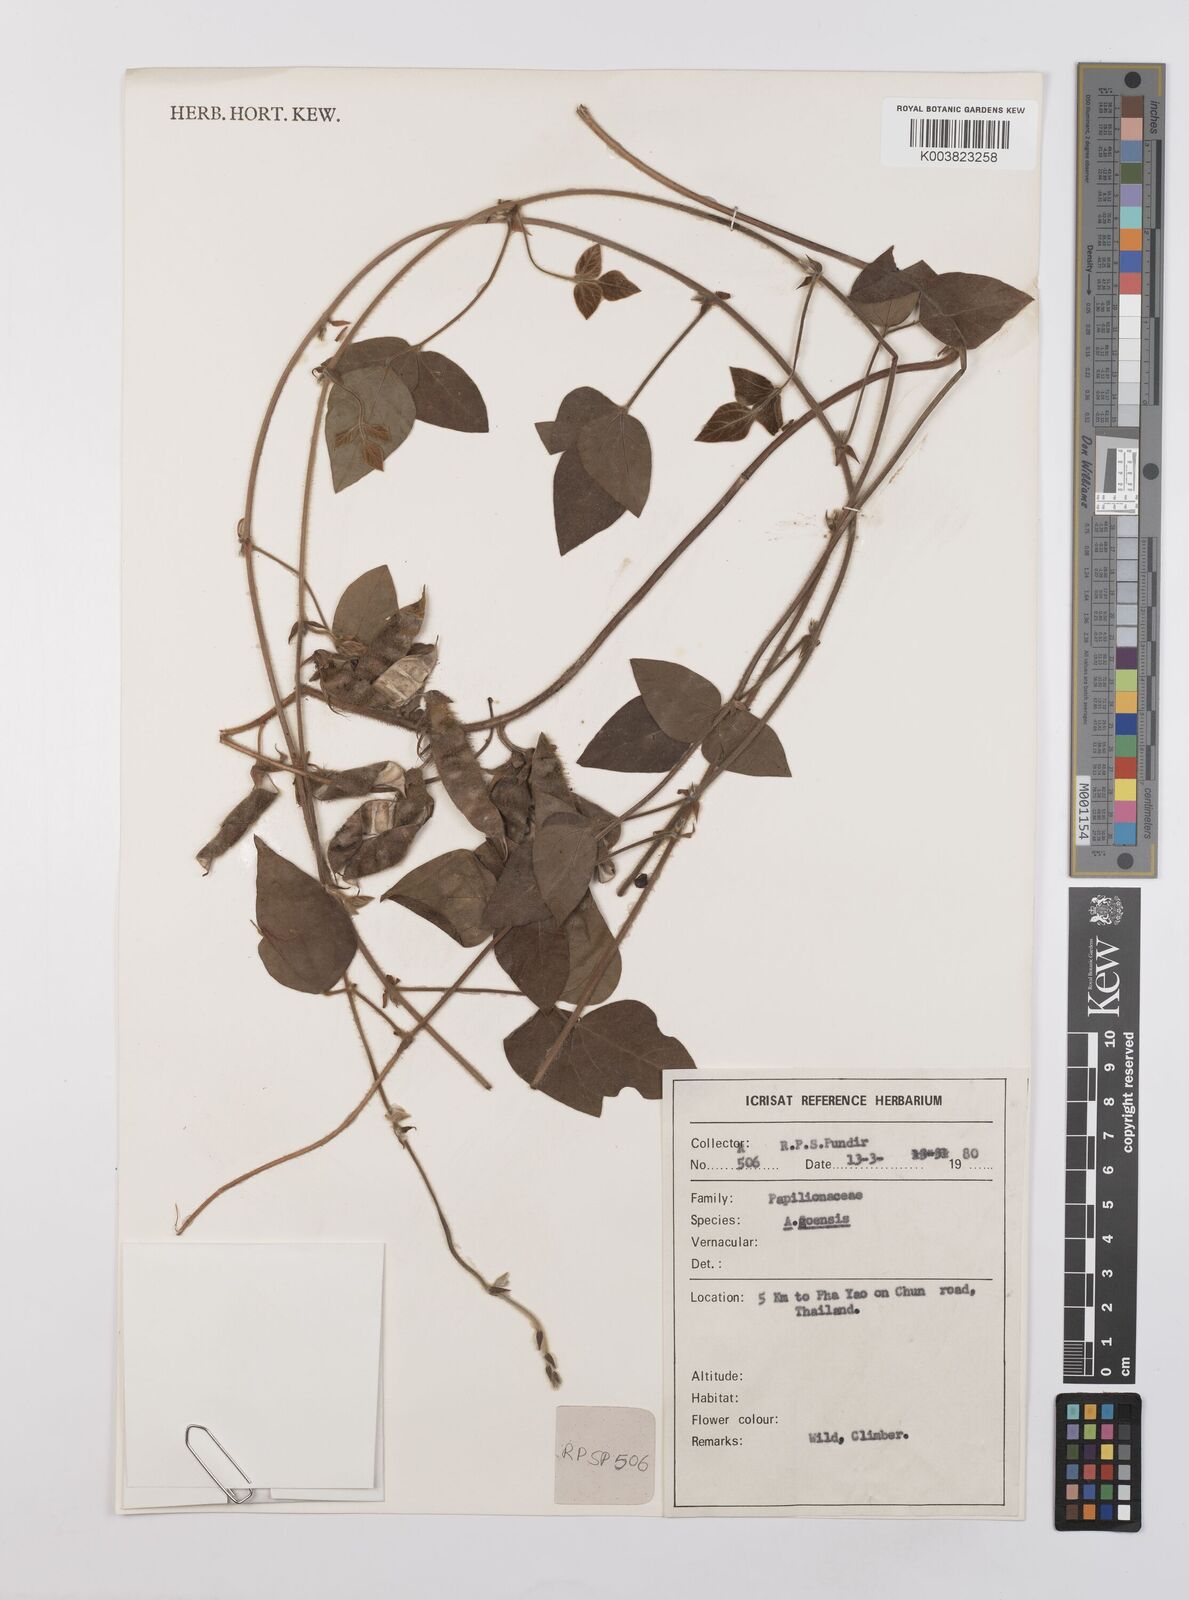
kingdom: Plantae
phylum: Tracheophyta
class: Magnoliopsida
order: Fabales
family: Fabaceae
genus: Cajanus
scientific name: Cajanus goensis
